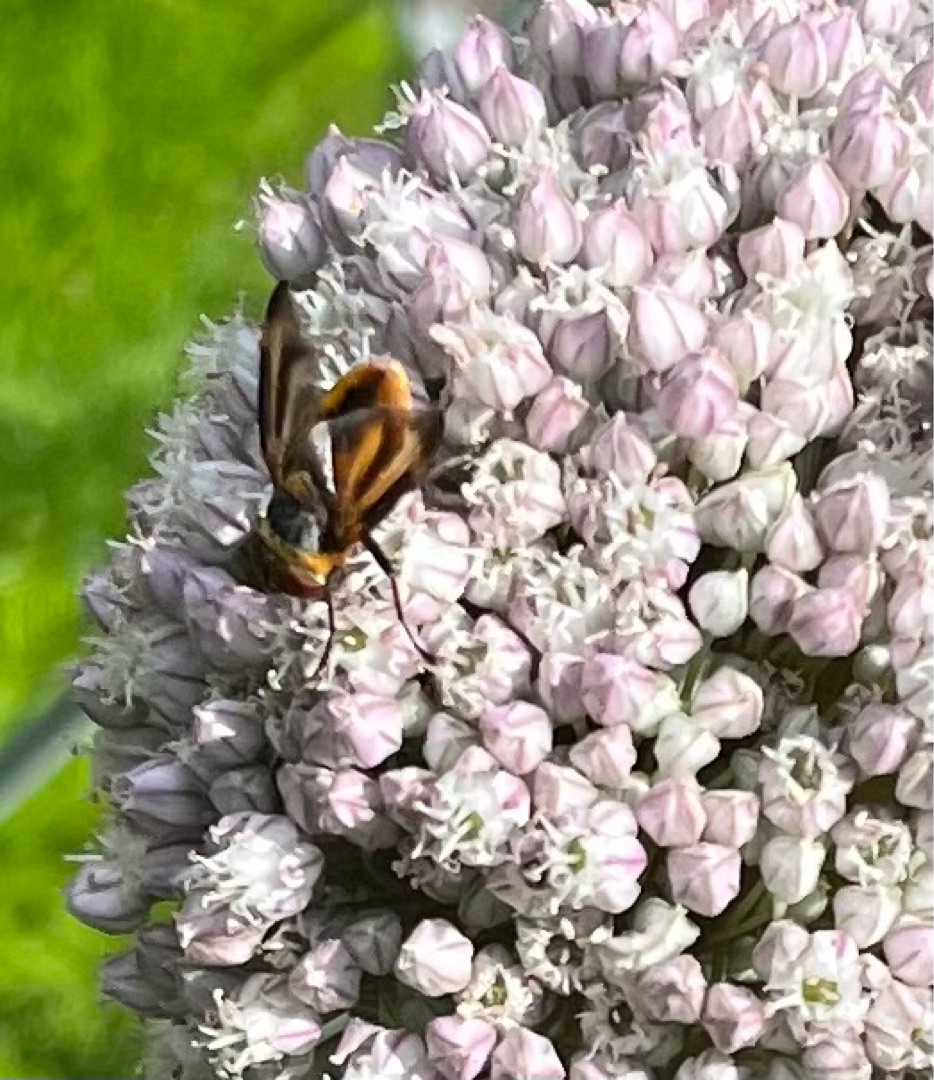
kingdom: Animalia
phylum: Arthropoda
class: Insecta
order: Diptera
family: Tachinidae
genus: Phasia
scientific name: Phasia hemiptera
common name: Blåvinget pragtsnylteflue
